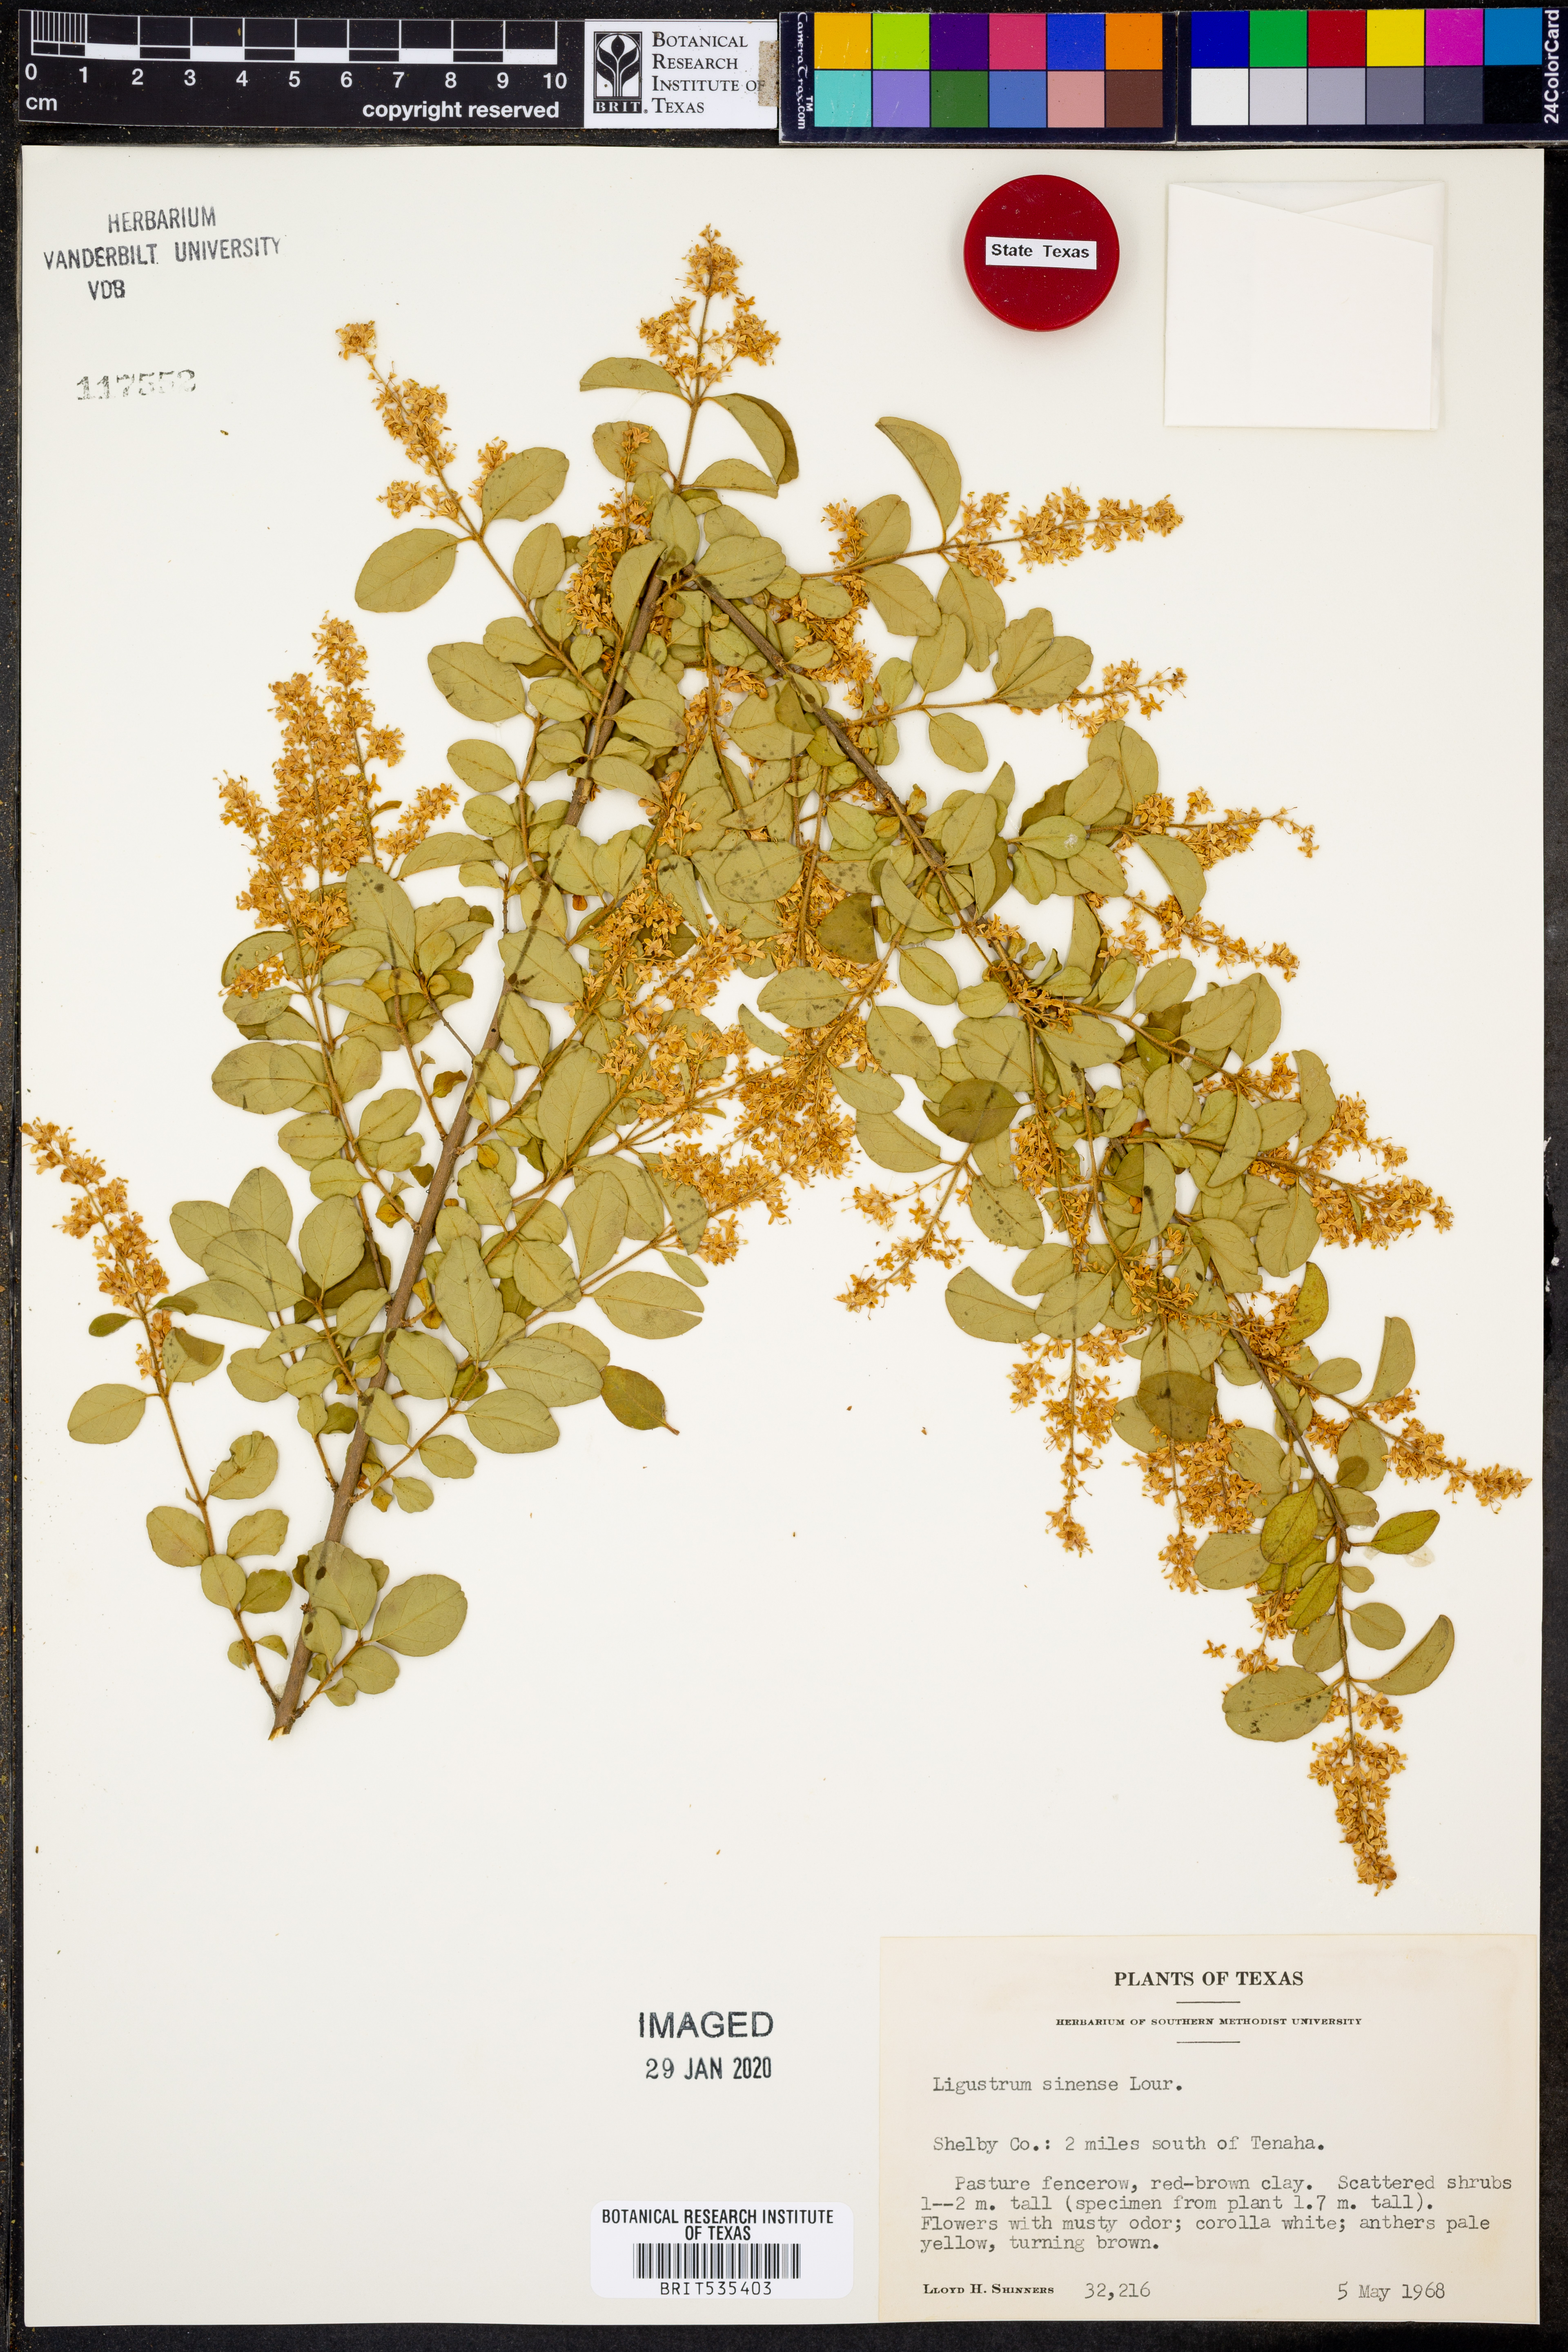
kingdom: Plantae
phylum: Tracheophyta
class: Magnoliopsida
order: Lamiales
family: Oleaceae
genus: Ligustrum
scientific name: Ligustrum sinense
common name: Chinese privet
